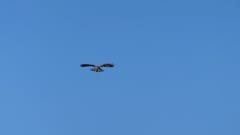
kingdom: Animalia
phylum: Chordata
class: Aves
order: Falconiformes
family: Falconidae
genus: Falco
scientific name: Falco tinnunculus
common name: Common kestrel
